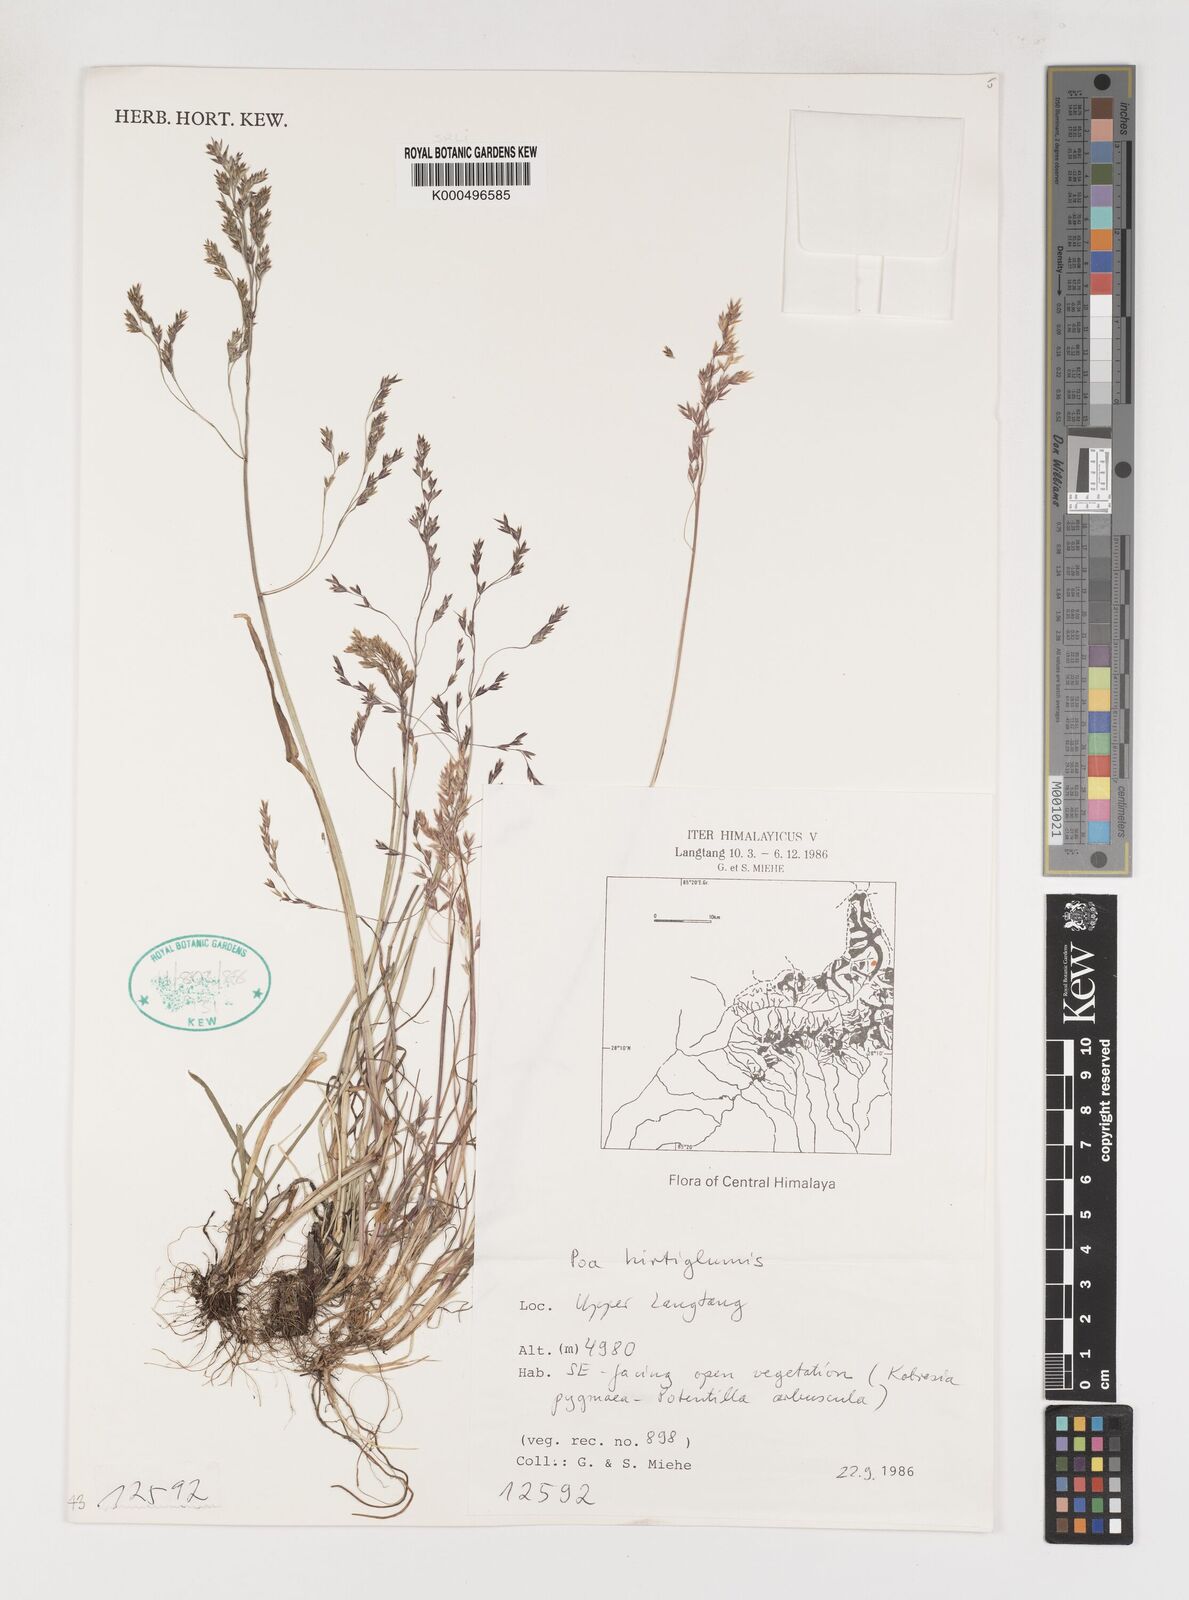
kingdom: Plantae
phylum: Tracheophyta
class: Liliopsida
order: Poales
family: Poaceae
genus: Poa
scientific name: Poa hirtiglumis
